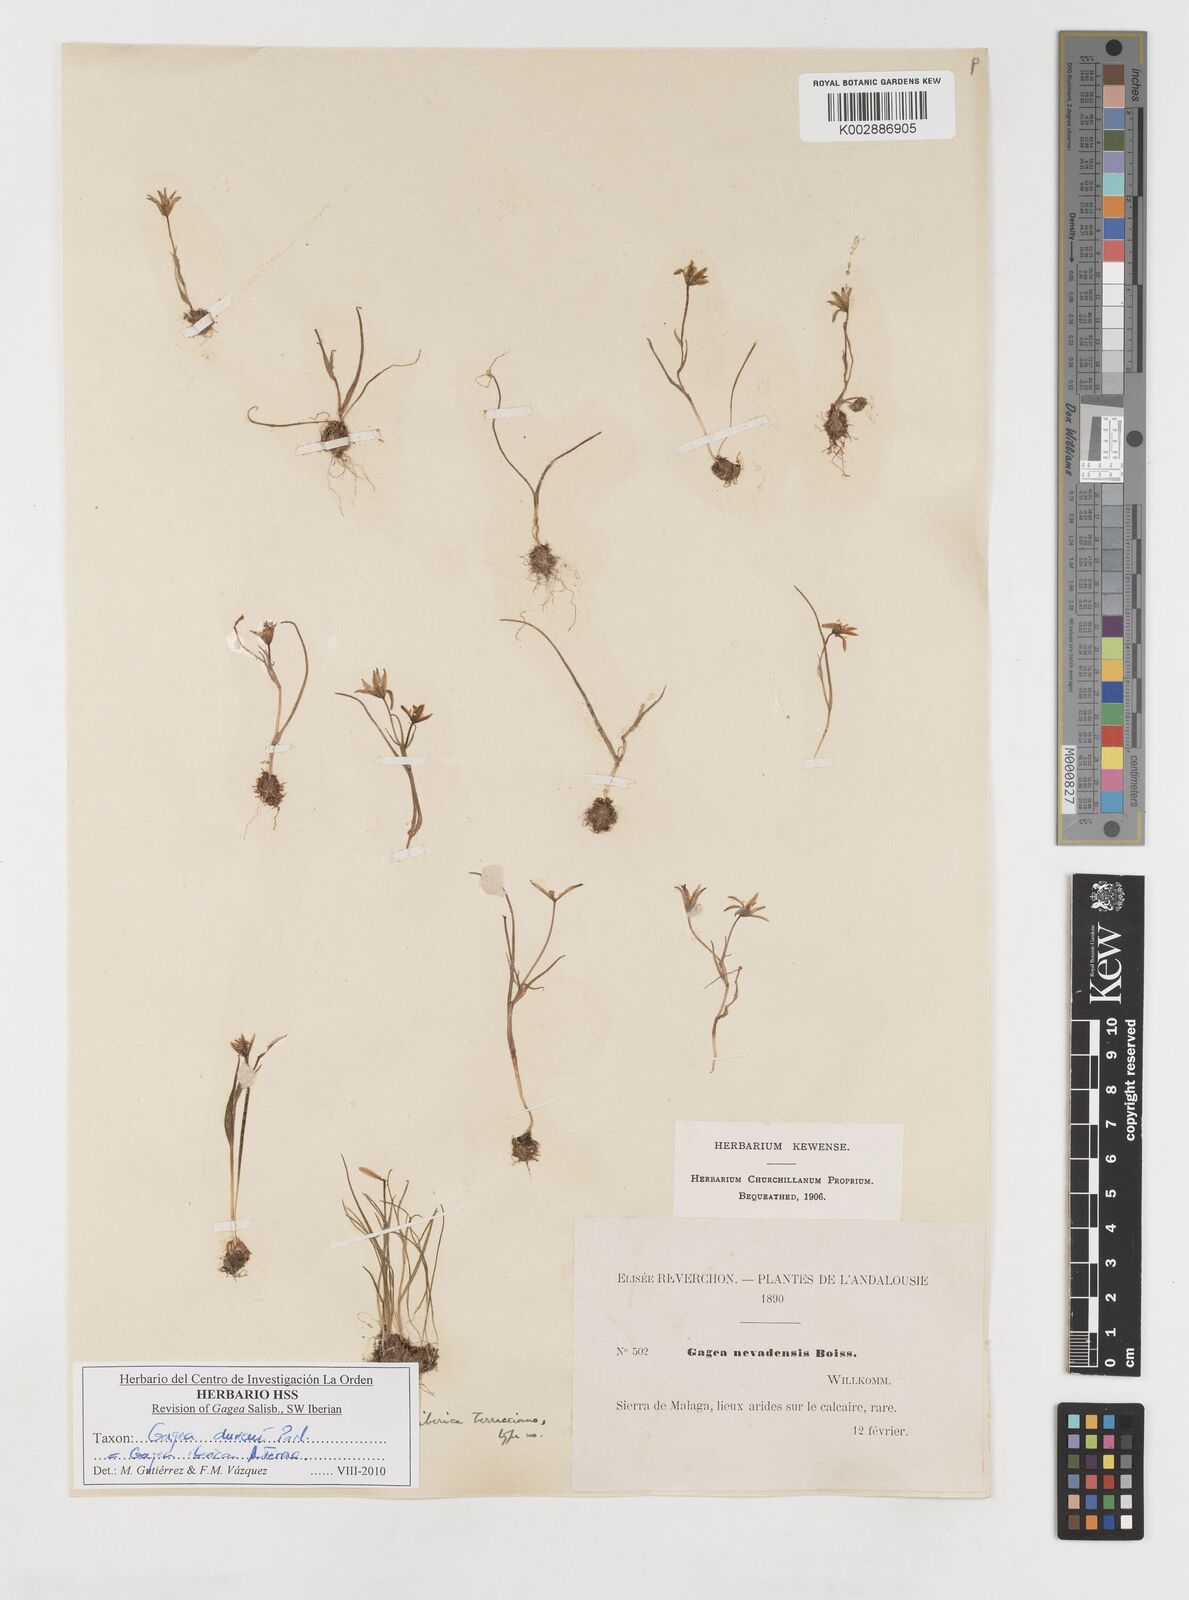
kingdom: Plantae
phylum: Tracheophyta
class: Liliopsida
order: Liliales
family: Liliaceae
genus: Gagea
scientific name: Gagea durieui
